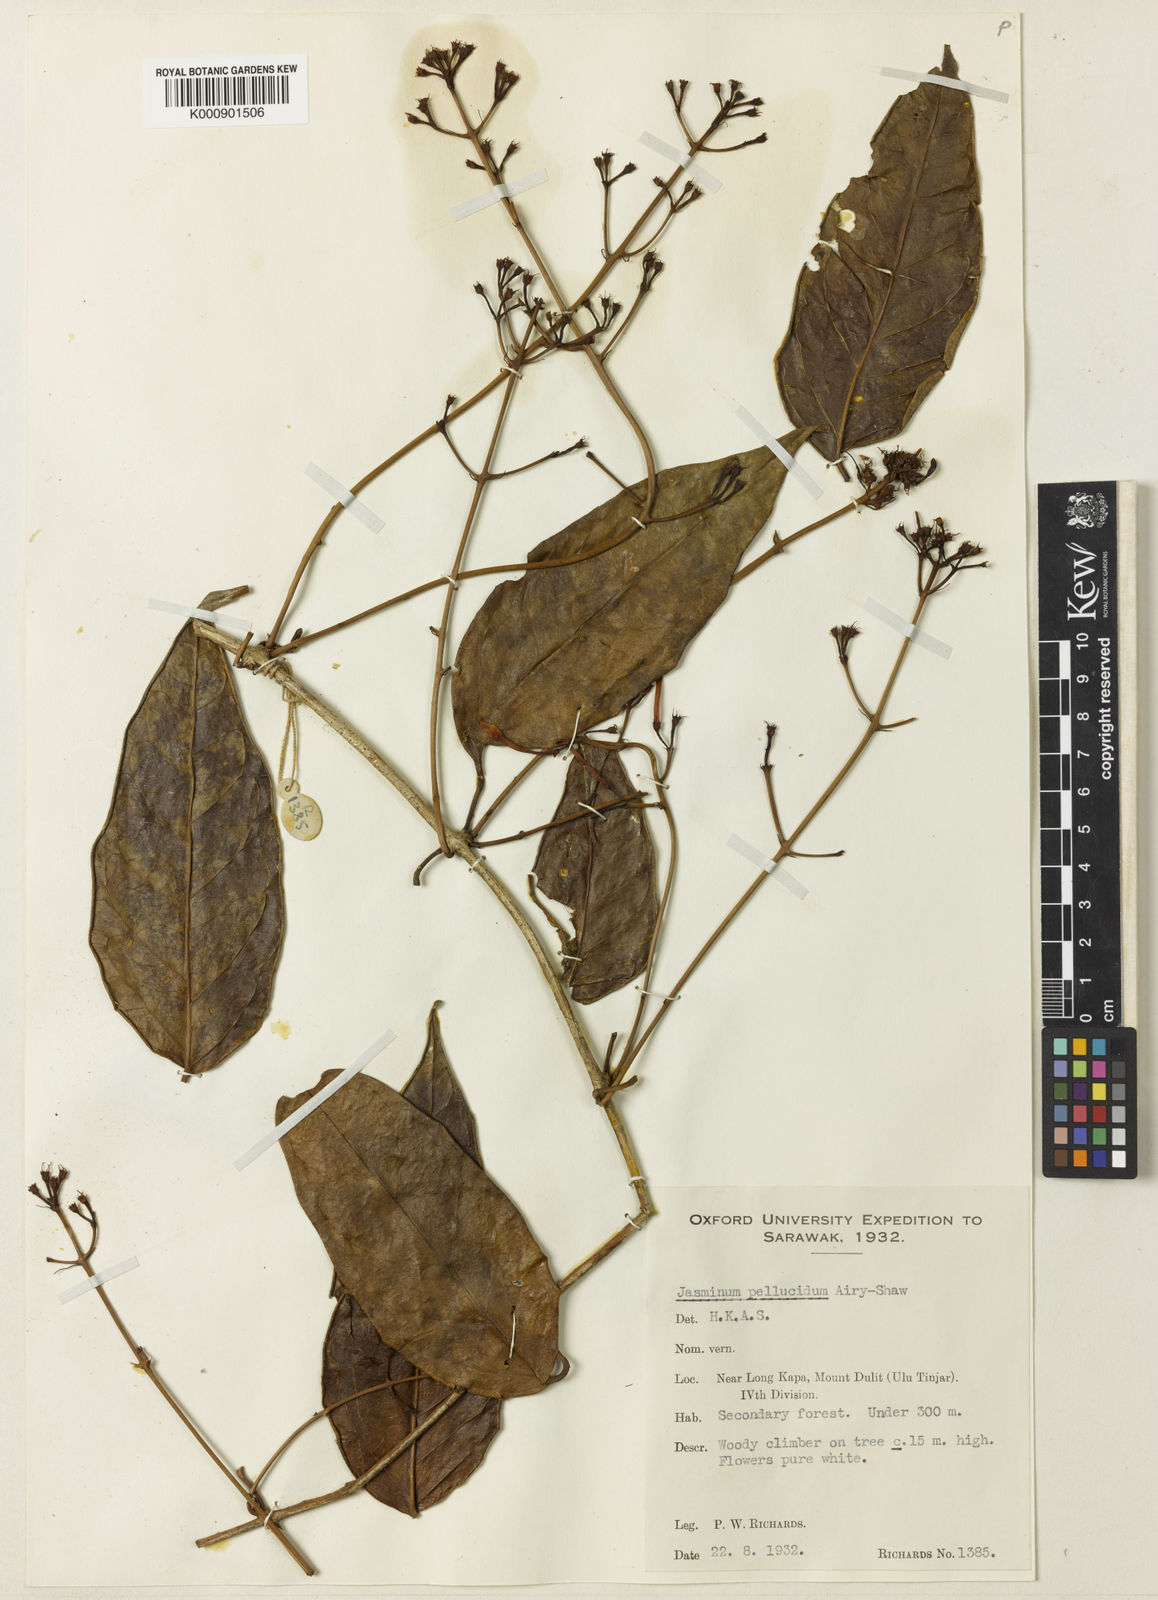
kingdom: Plantae
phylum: Tracheophyta
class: Magnoliopsida
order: Lamiales
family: Oleaceae
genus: Jasminum
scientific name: Jasminum pellucidum
